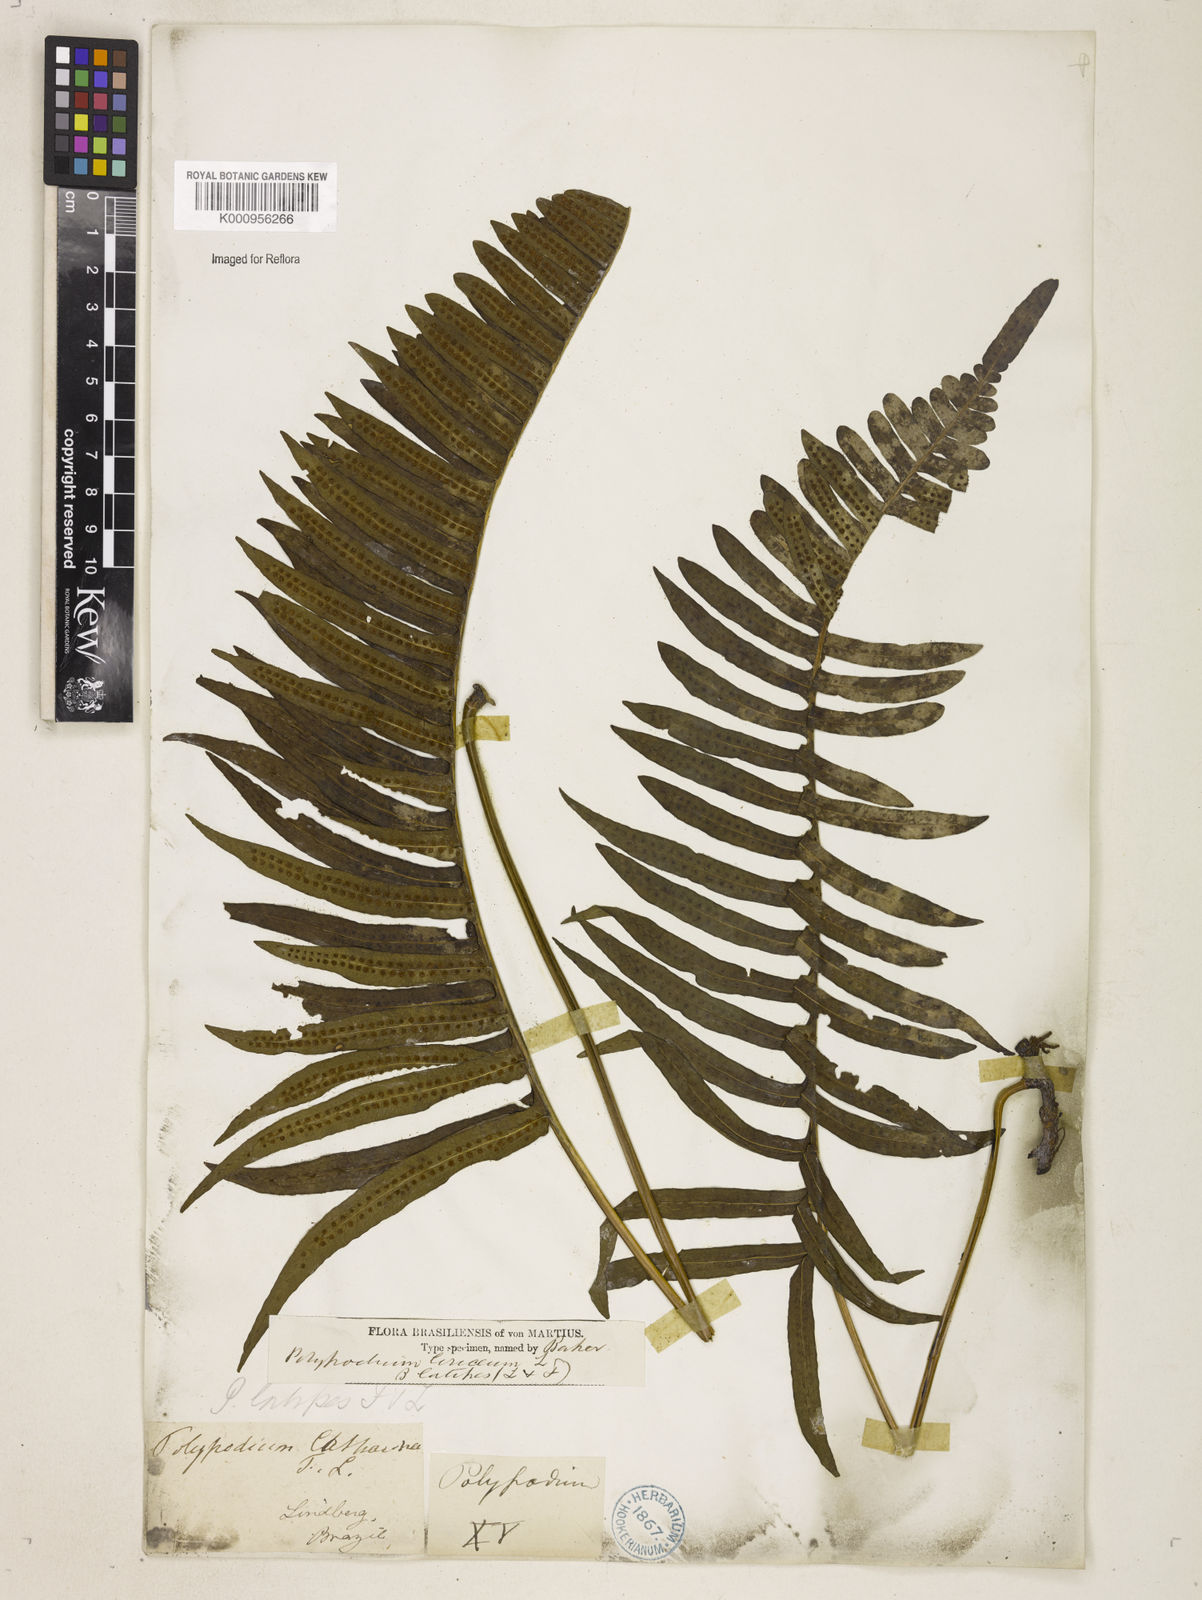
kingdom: Plantae
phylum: Tracheophyta
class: Polypodiopsida
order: Polypodiales
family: Polypodiaceae
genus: Serpocaulon
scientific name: Serpocaulon loriceum
